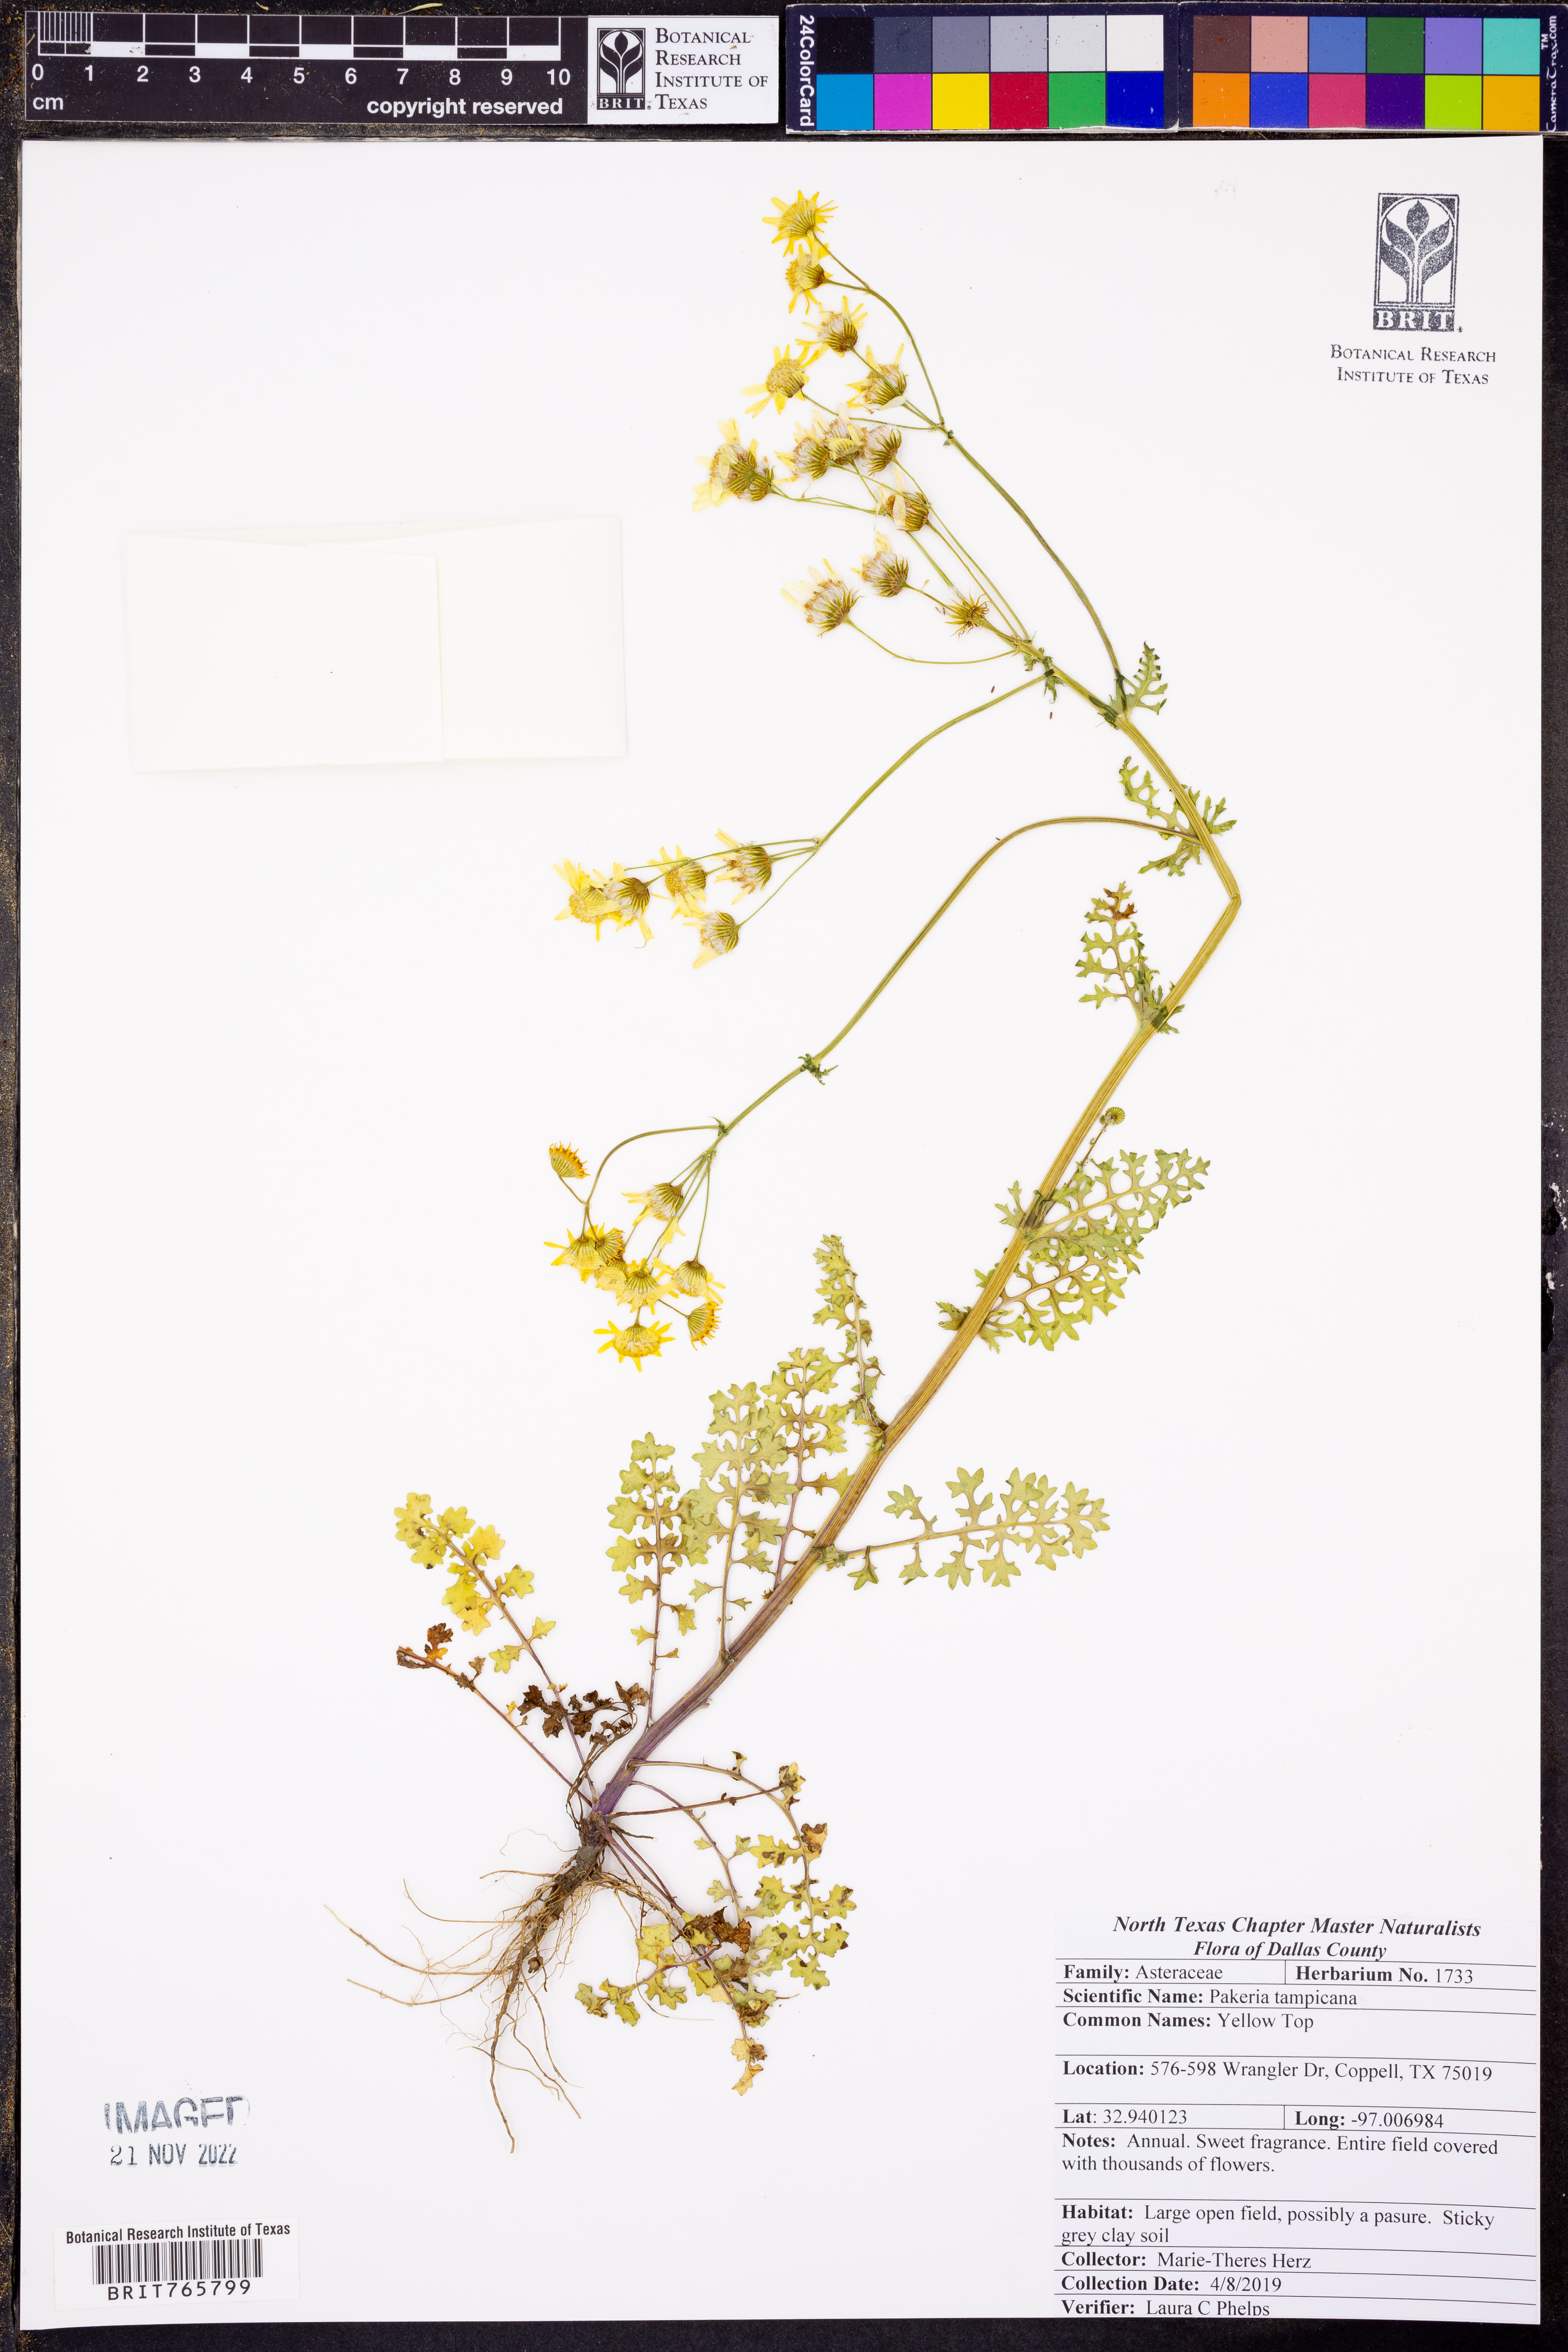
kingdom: Plantae
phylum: Tracheophyta
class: Magnoliopsida
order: Asterales
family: Asteraceae
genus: Packera
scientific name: Packera tampicana
